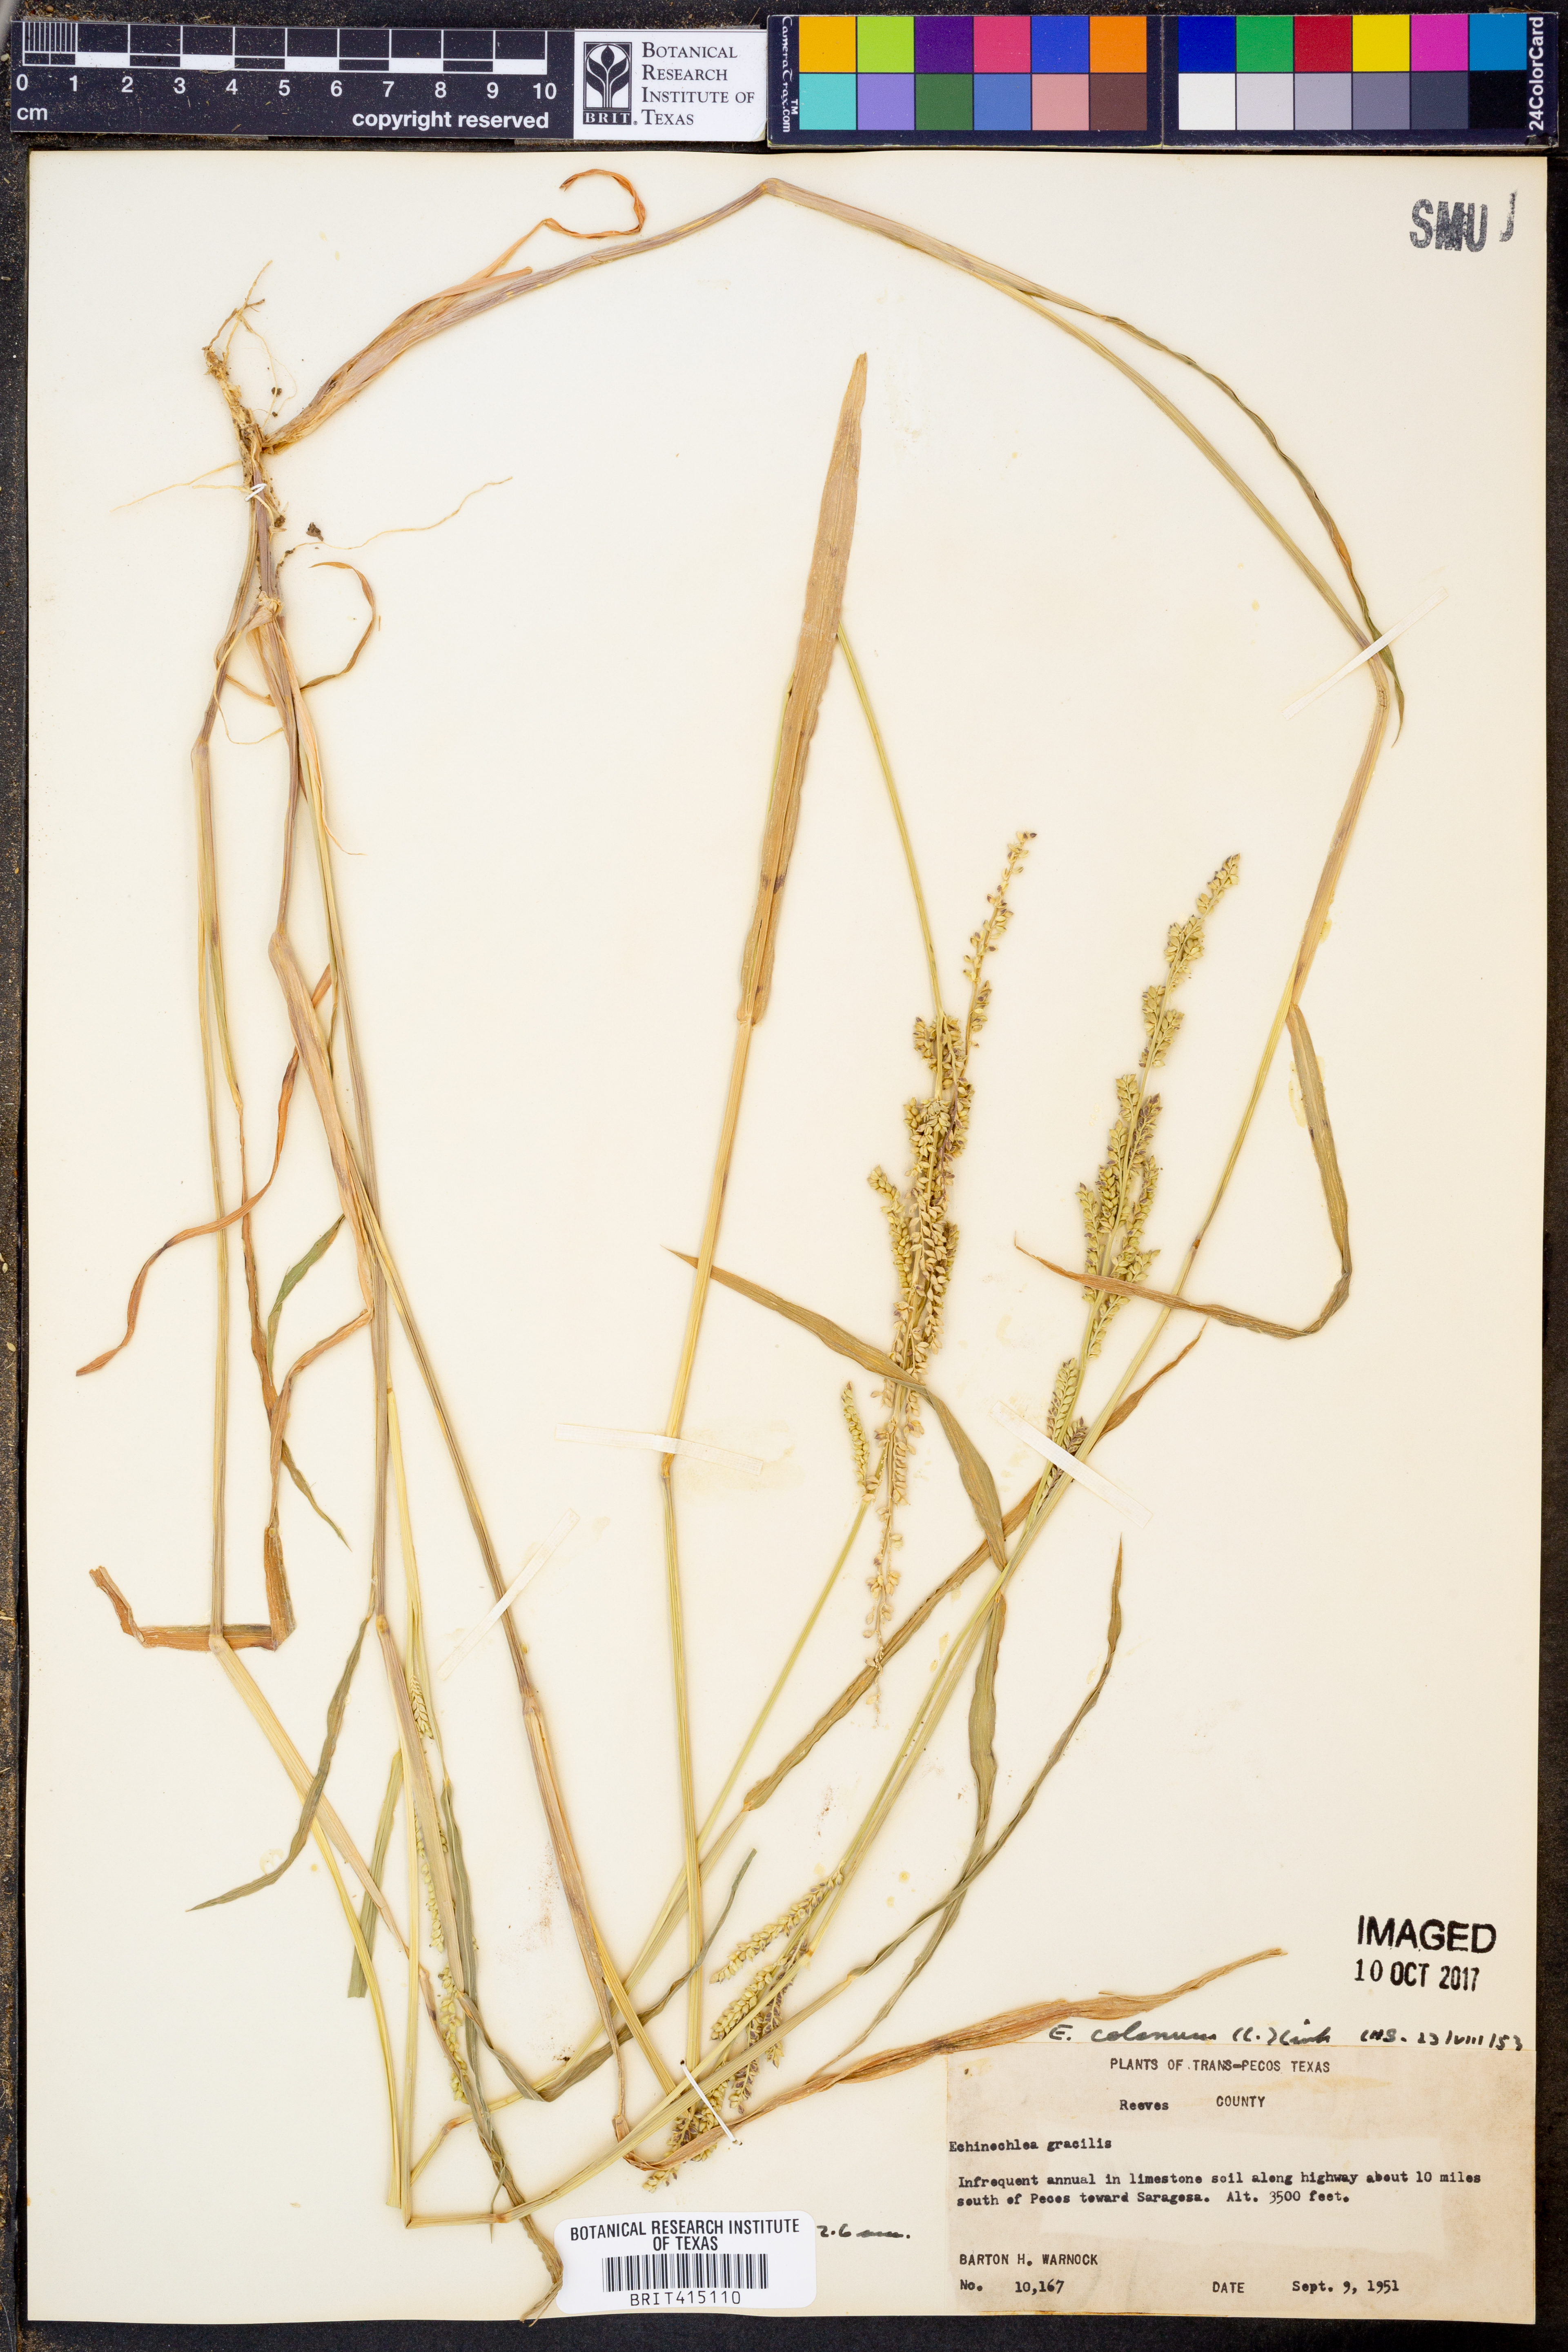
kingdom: Plantae
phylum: Tracheophyta
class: Liliopsida
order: Poales
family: Poaceae
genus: Echinochloa
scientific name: Echinochloa colonum
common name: Jungle rice
